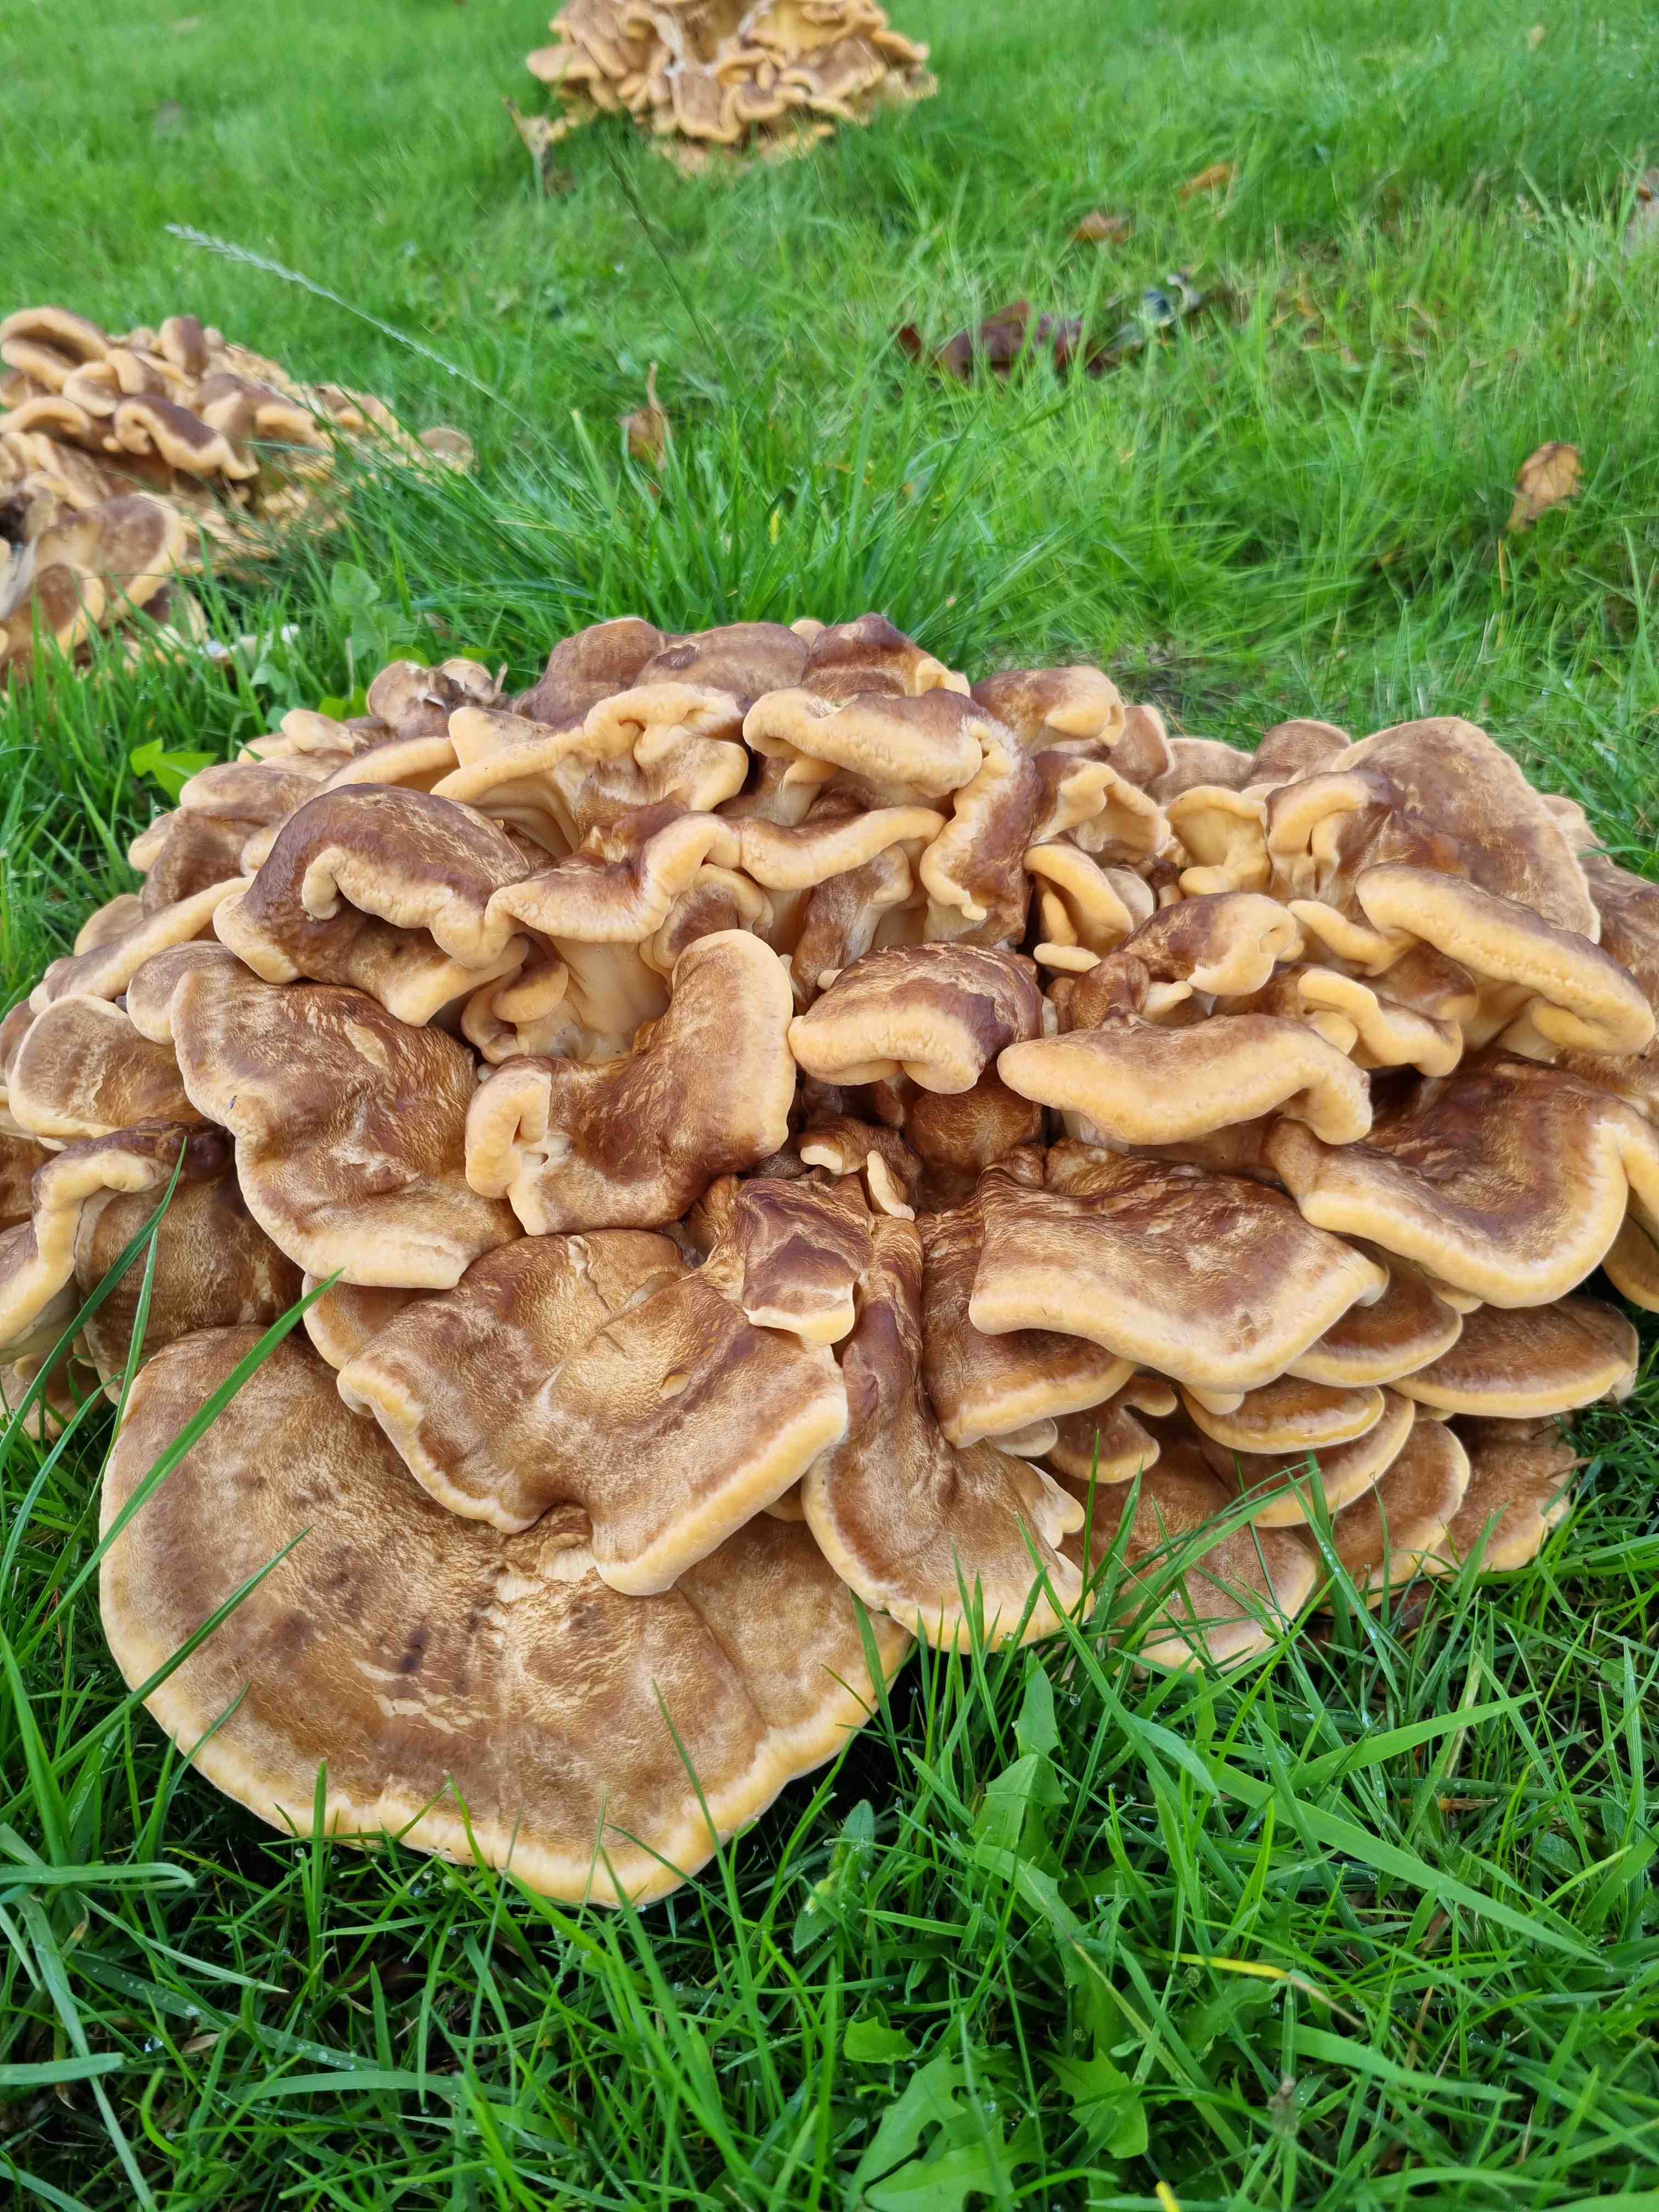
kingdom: Fungi
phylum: Basidiomycota
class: Agaricomycetes
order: Polyporales
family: Meripilaceae
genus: Meripilus
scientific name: Meripilus giganteus
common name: kæmpeporesvamp
